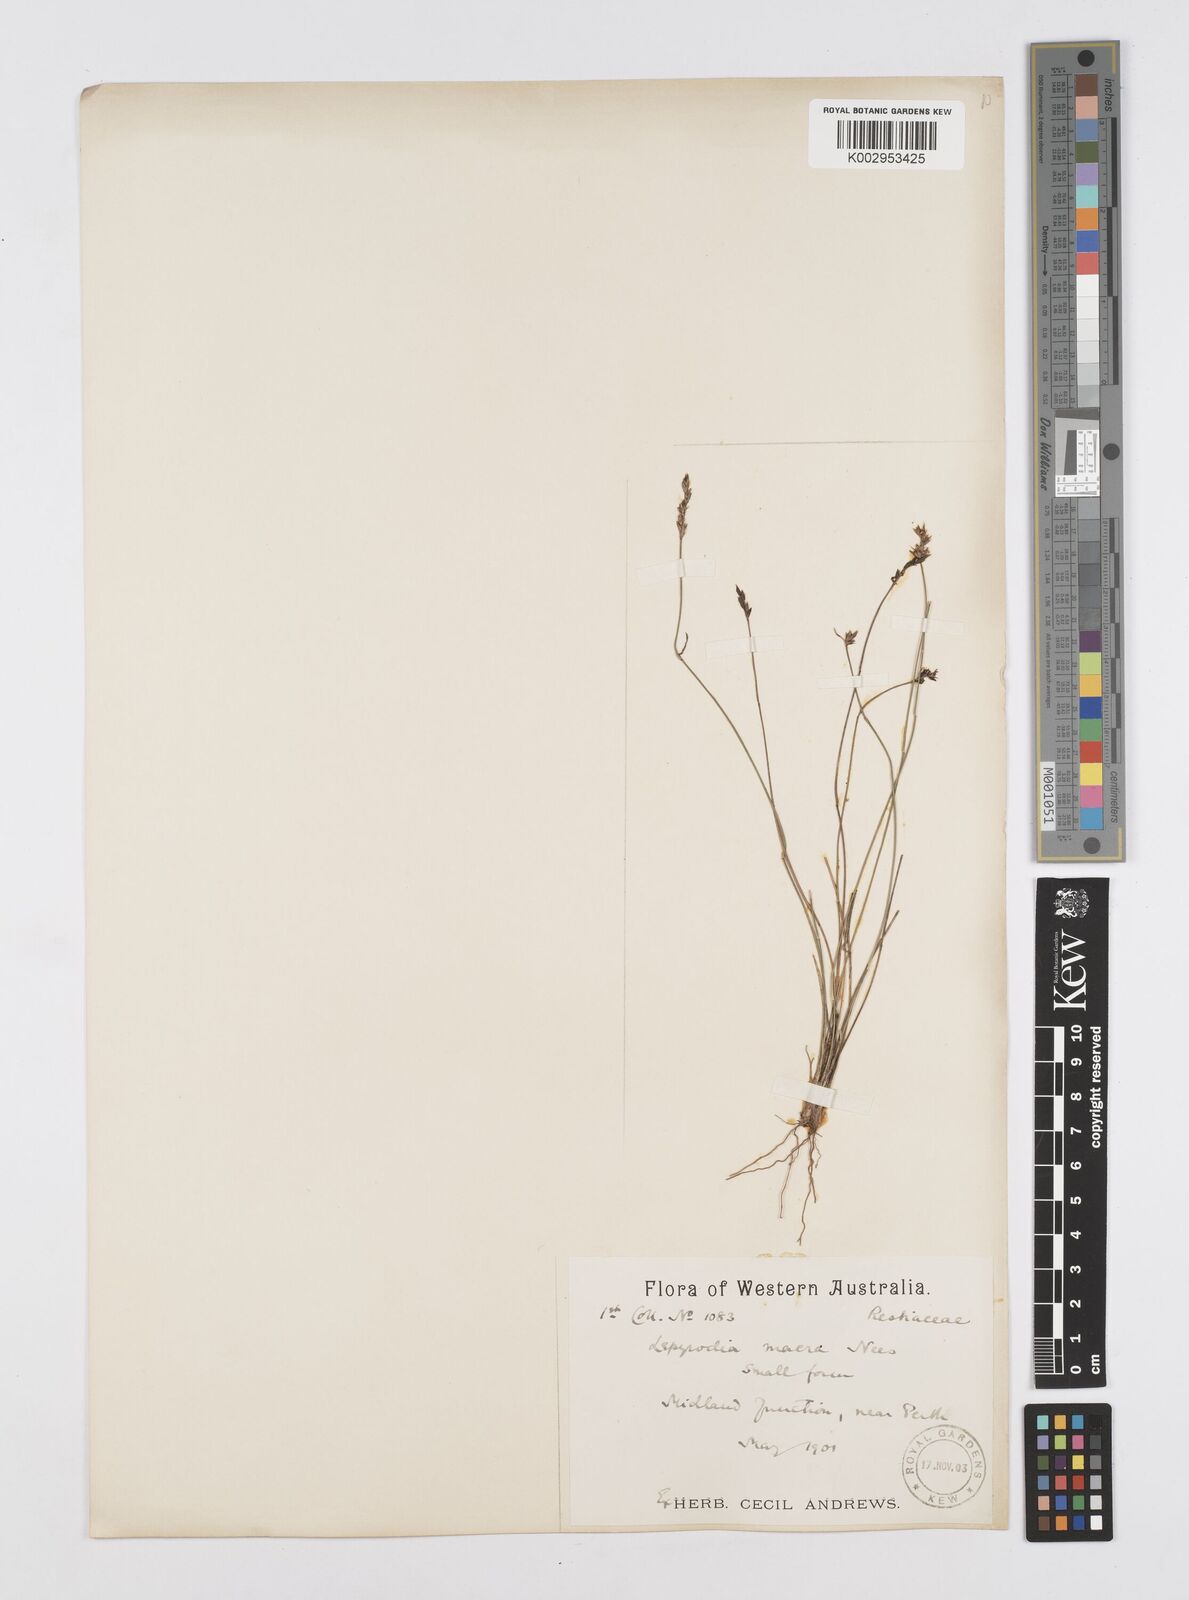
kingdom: Plantae
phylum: Tracheophyta
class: Liliopsida
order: Poales
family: Restionaceae
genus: Lepyrodia
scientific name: Lepyrodia macra
